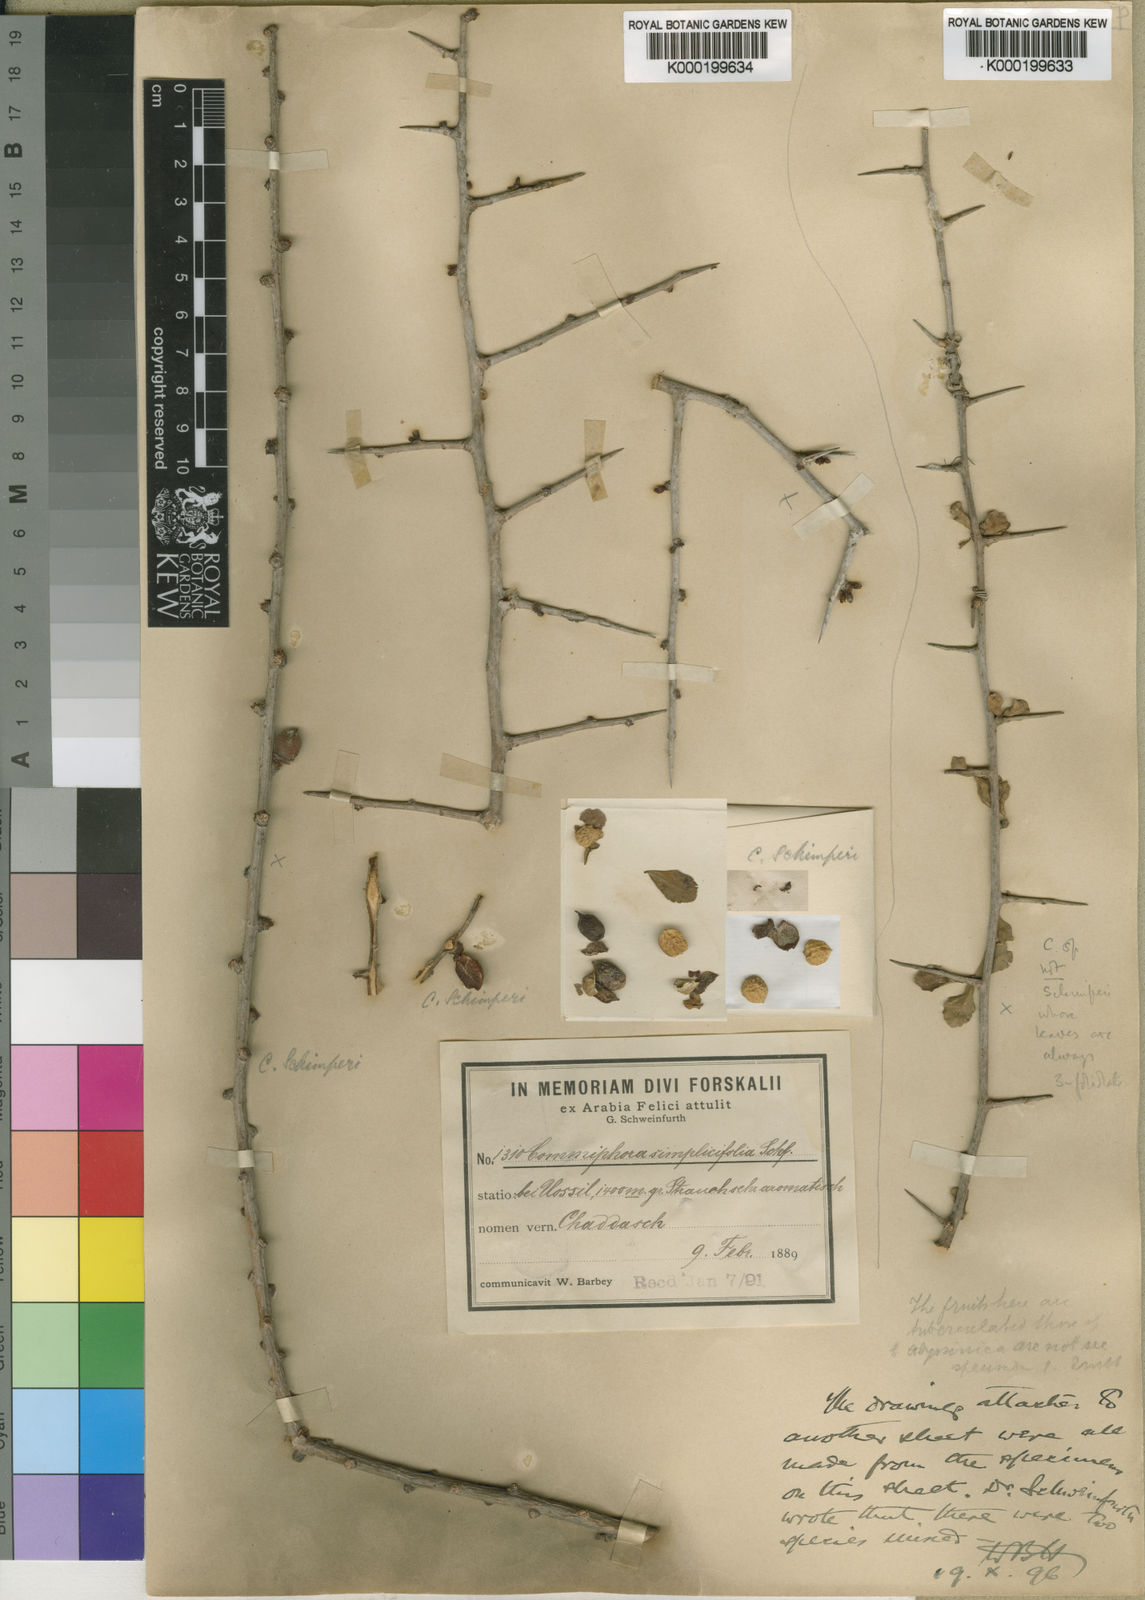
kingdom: Plantae
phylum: Tracheophyta
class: Magnoliopsida
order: Sapindales
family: Burseraceae
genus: Commiphora
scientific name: Commiphora kua
